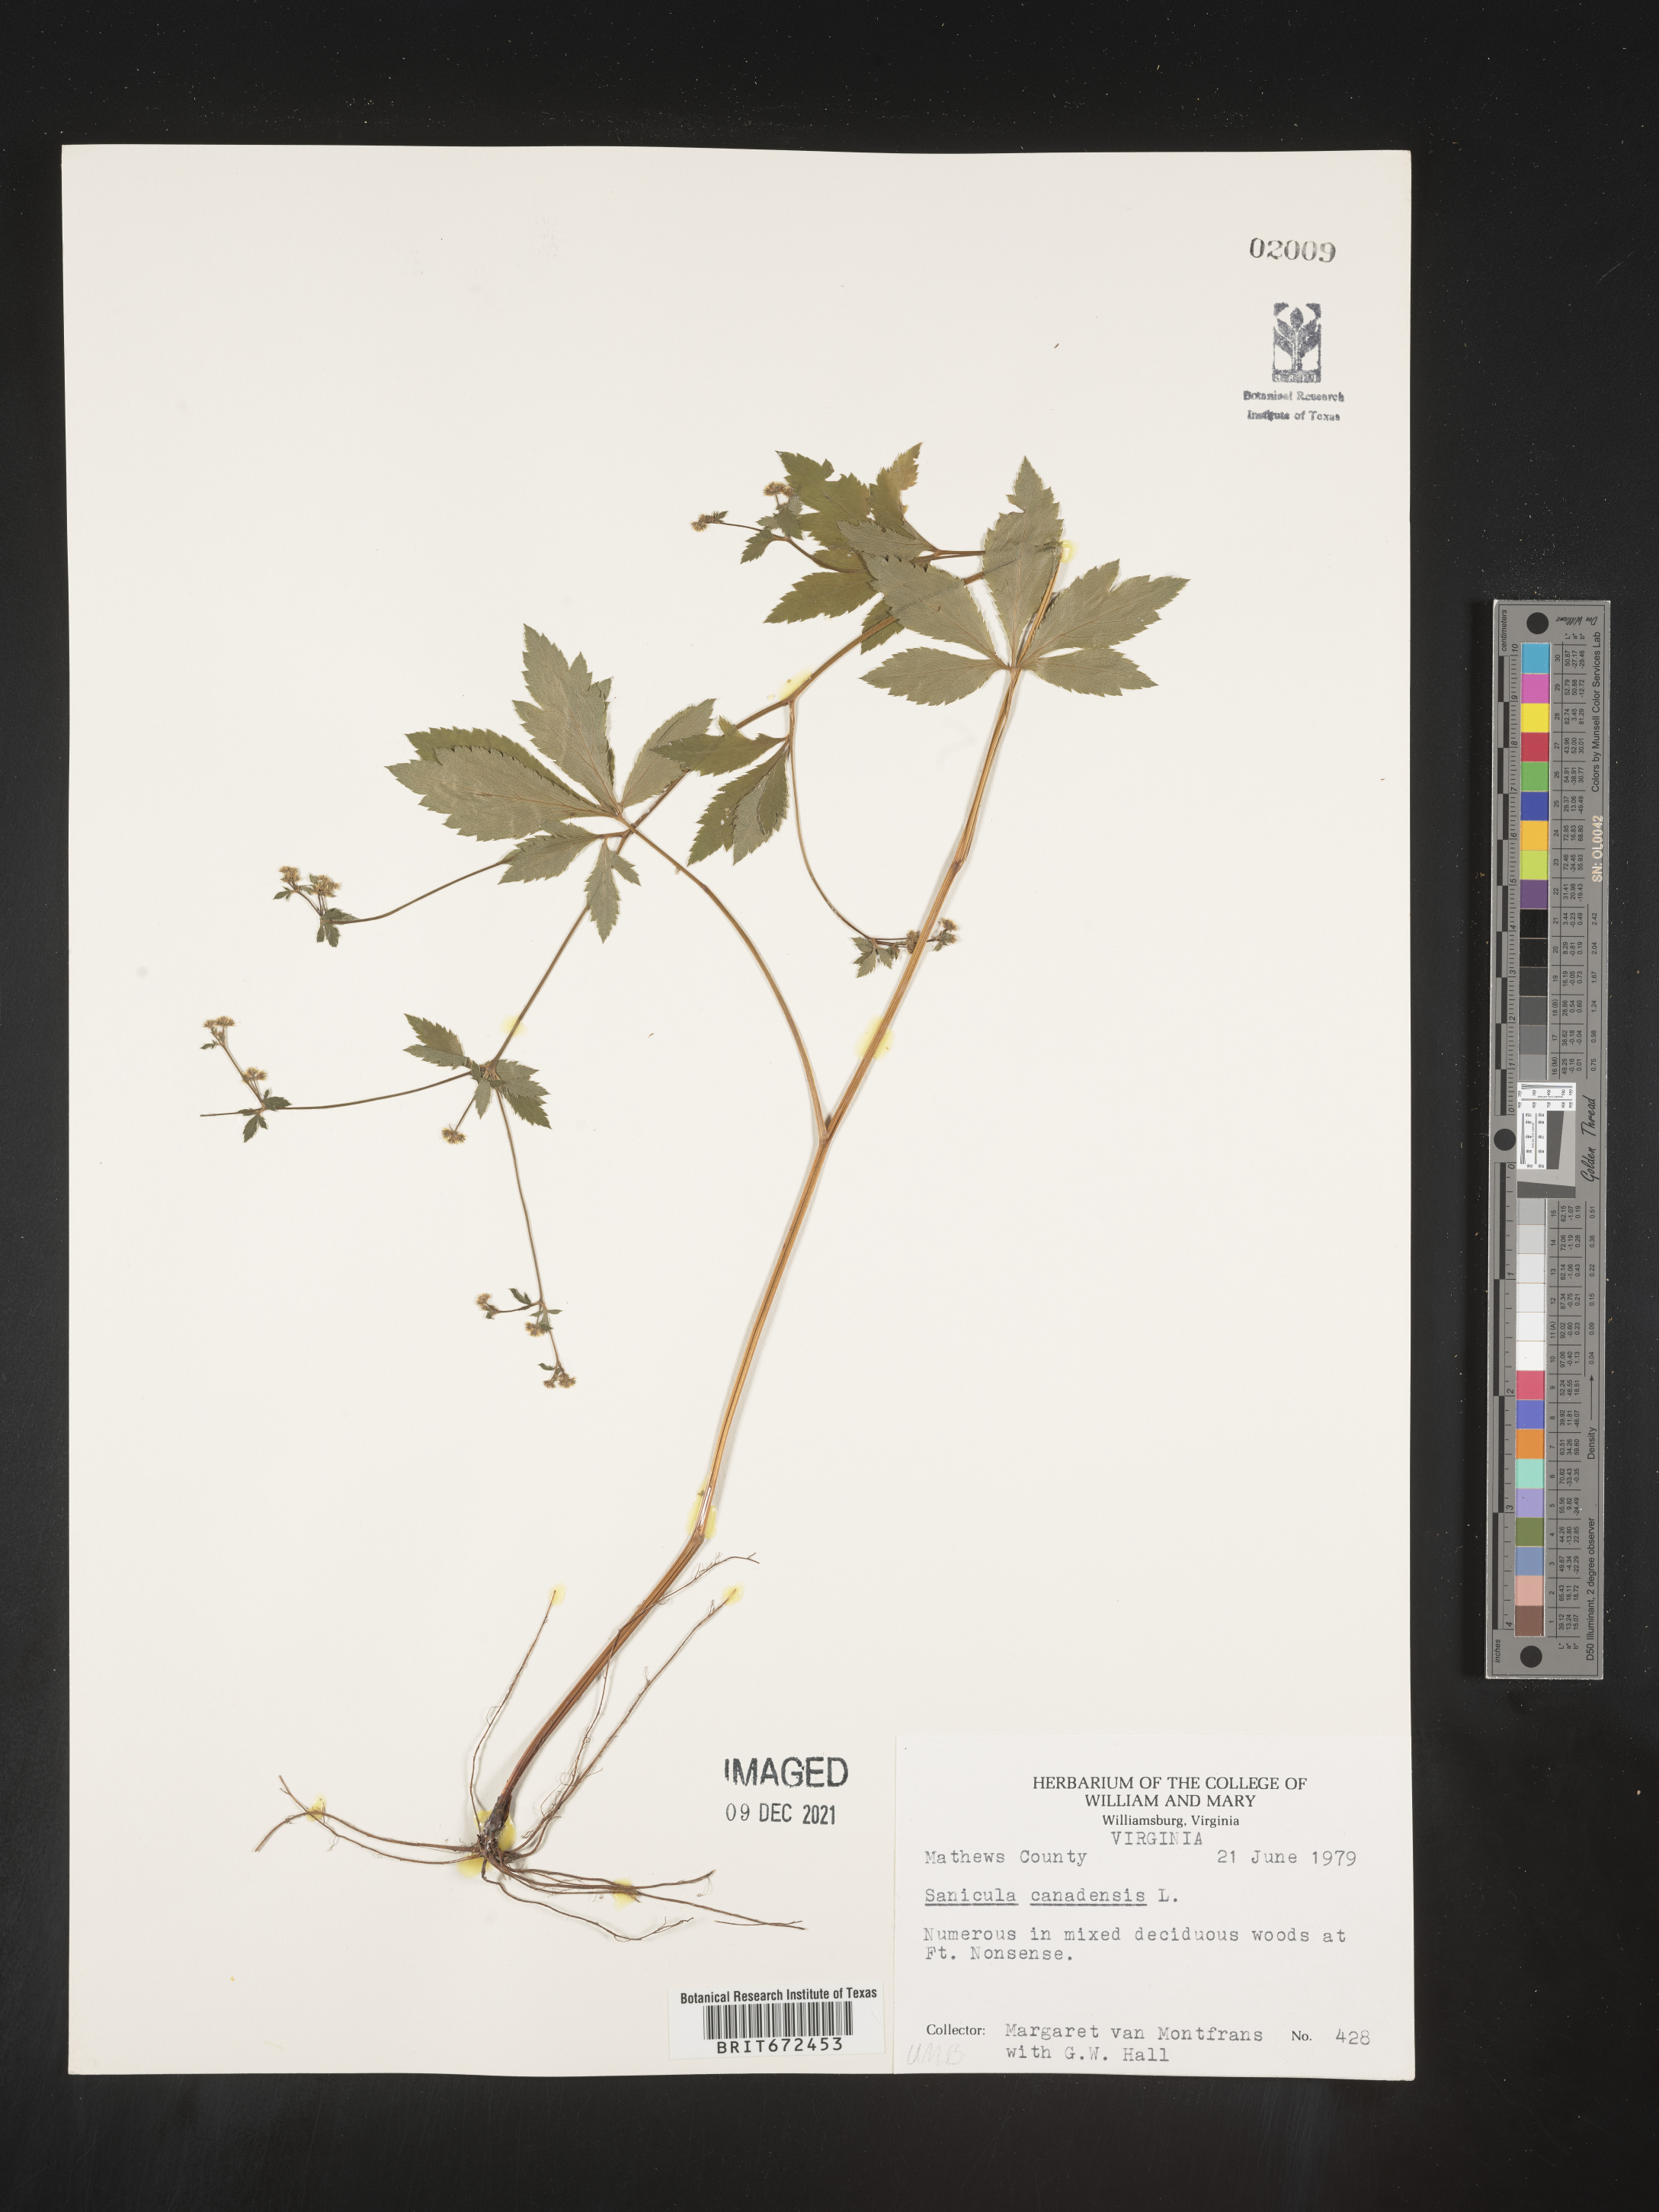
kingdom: Plantae
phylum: Tracheophyta
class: Magnoliopsida
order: Apiales
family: Apiaceae
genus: Sanicula
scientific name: Sanicula canadensis
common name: Canada sanicle
